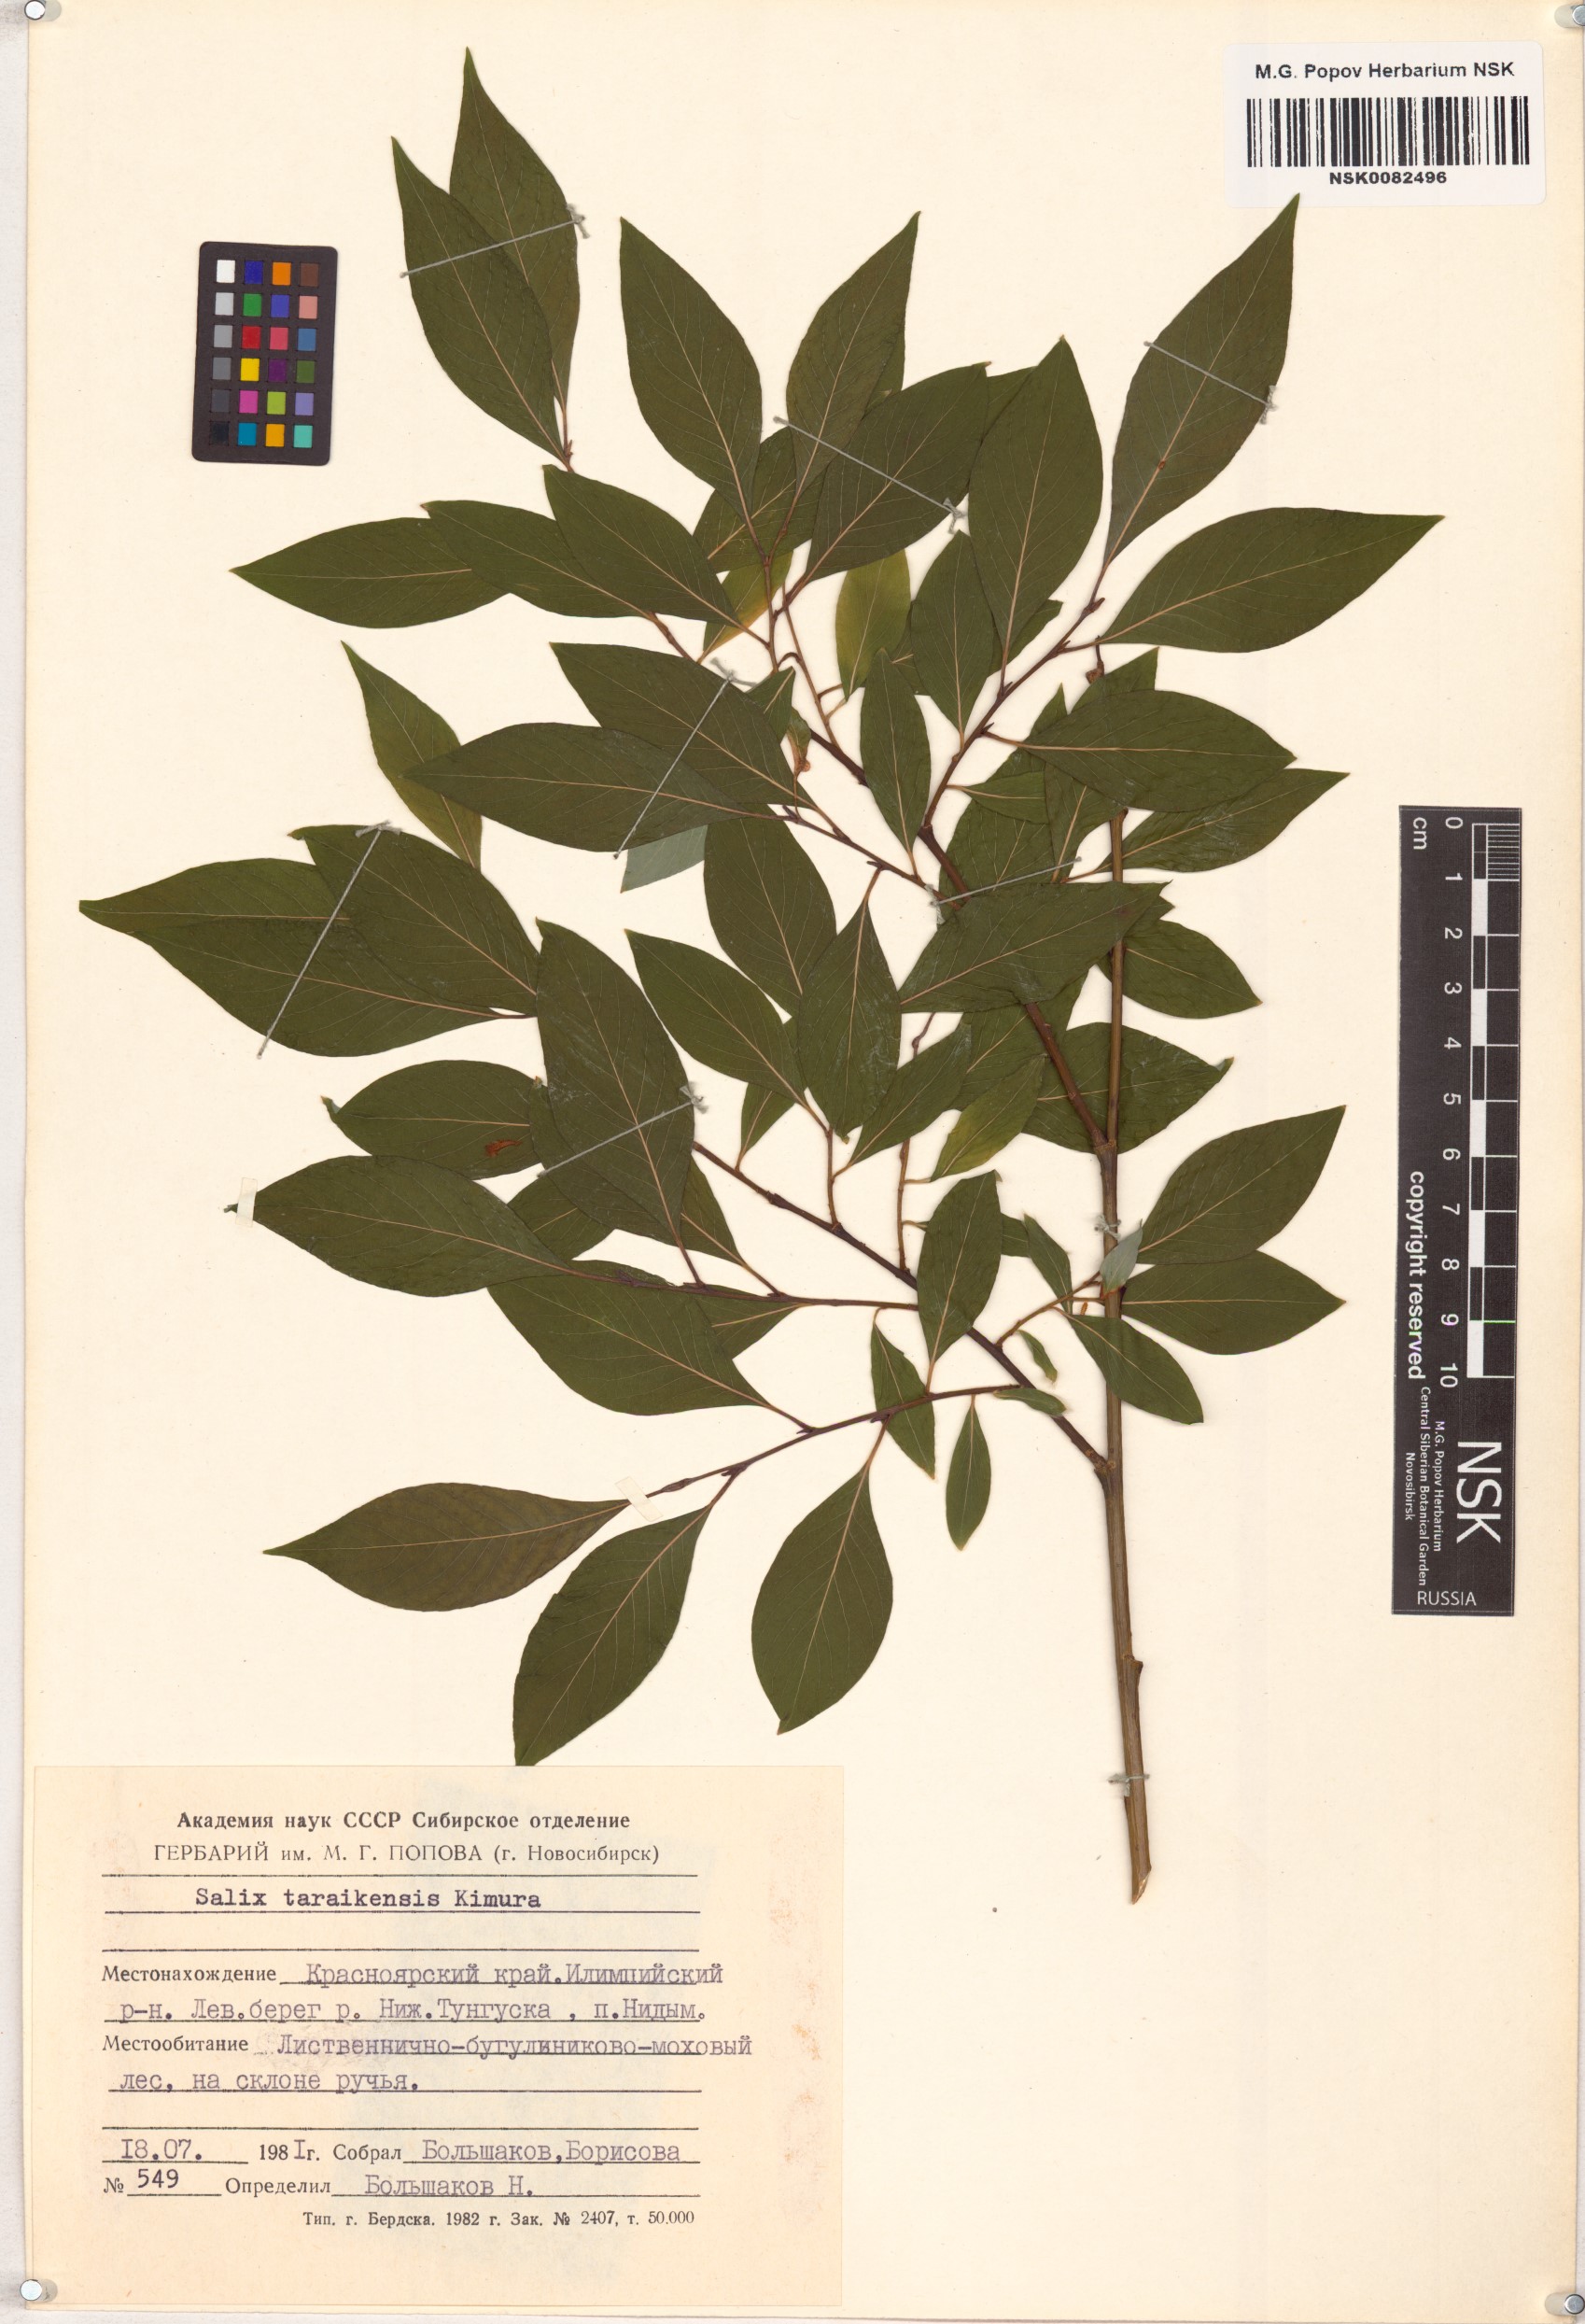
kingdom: Plantae
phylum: Tracheophyta
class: Magnoliopsida
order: Malpighiales
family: Salicaceae
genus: Salix
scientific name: Salix taraikensis
